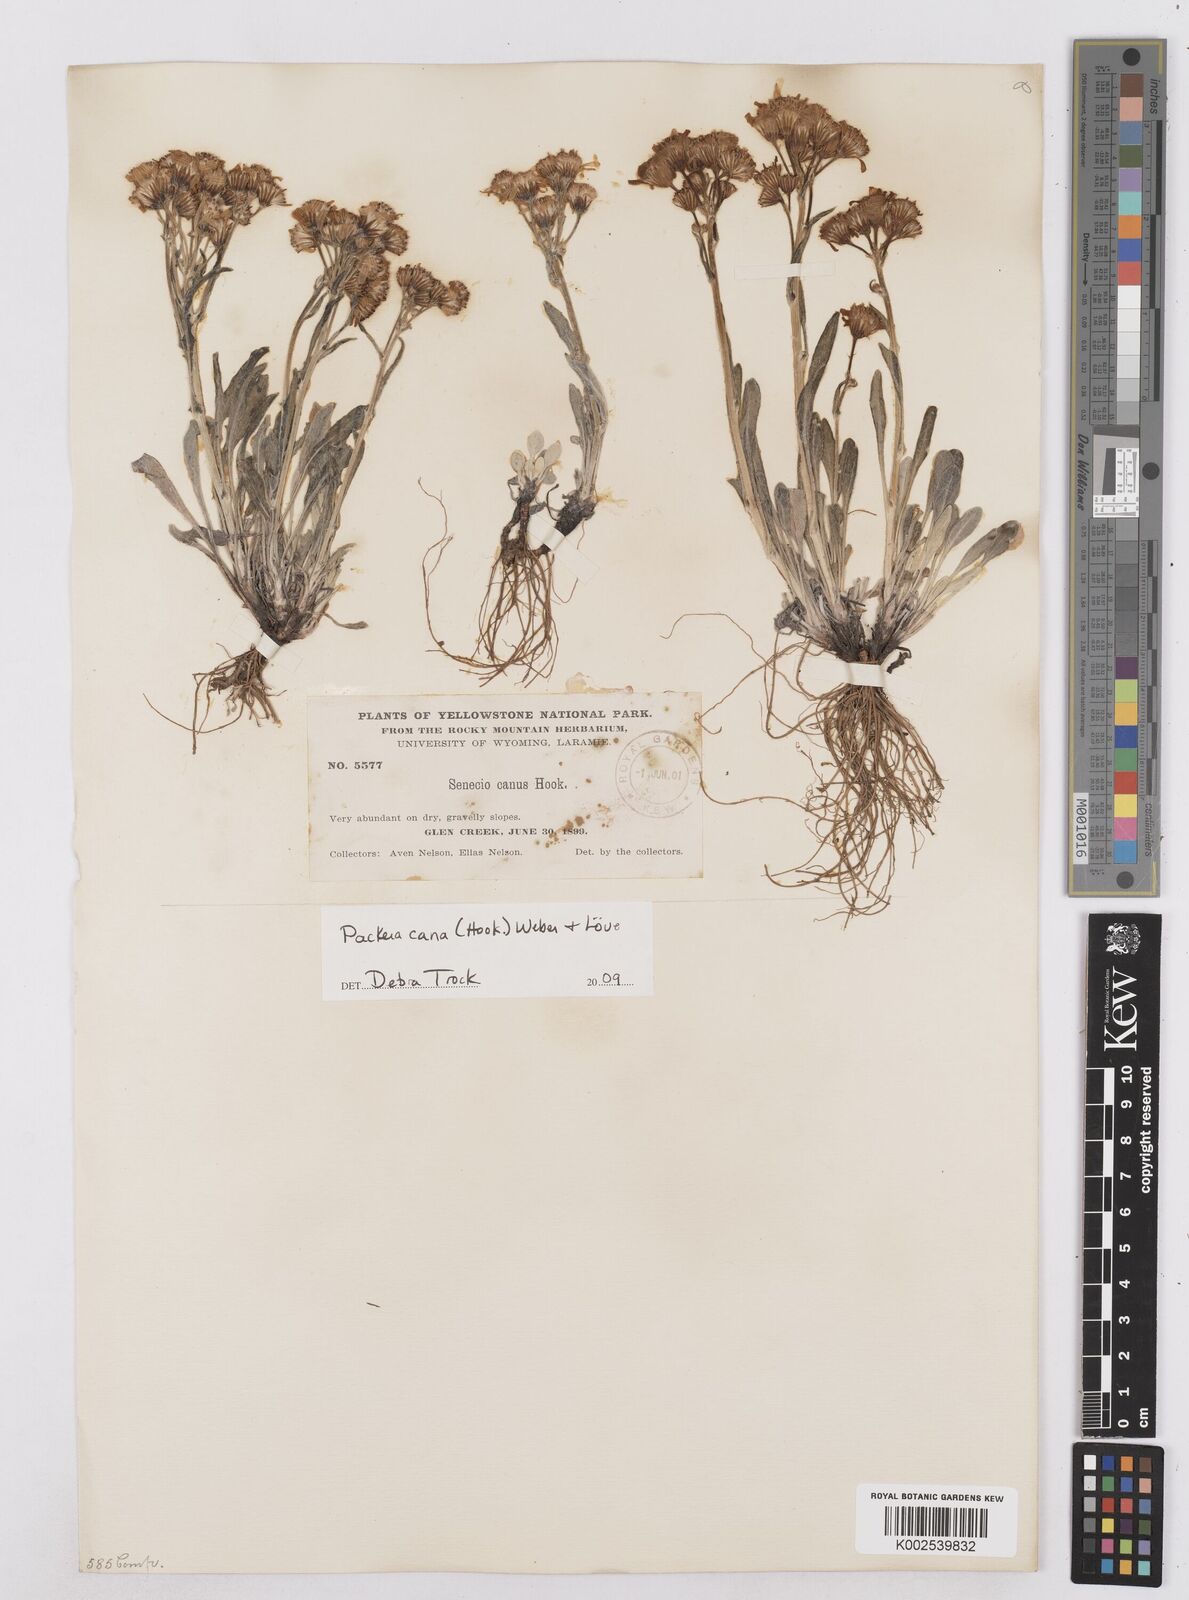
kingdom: Plantae
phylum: Tracheophyta
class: Magnoliopsida
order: Asterales
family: Asteraceae
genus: Packera
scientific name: Packera cana
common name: Woolly groundsel
